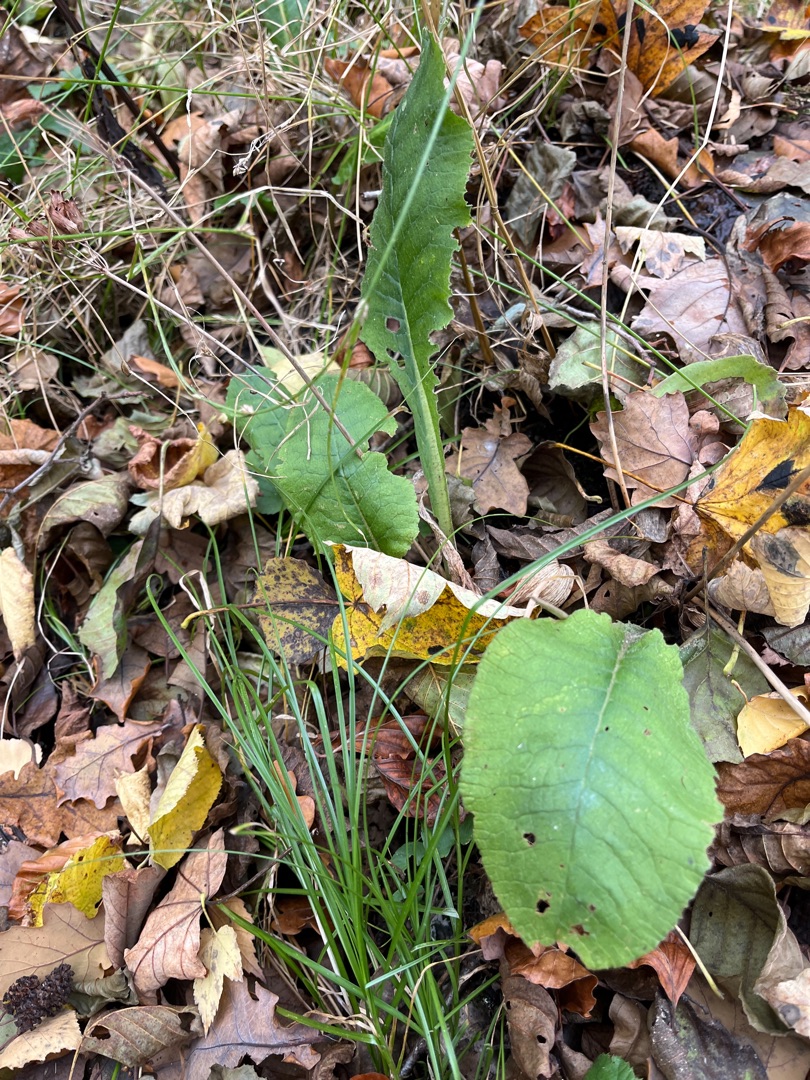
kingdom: Plantae
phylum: Tracheophyta
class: Magnoliopsida
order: Ericales
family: Primulaceae
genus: Primula
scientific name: Primula elatior
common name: Fladkravet kodriver
